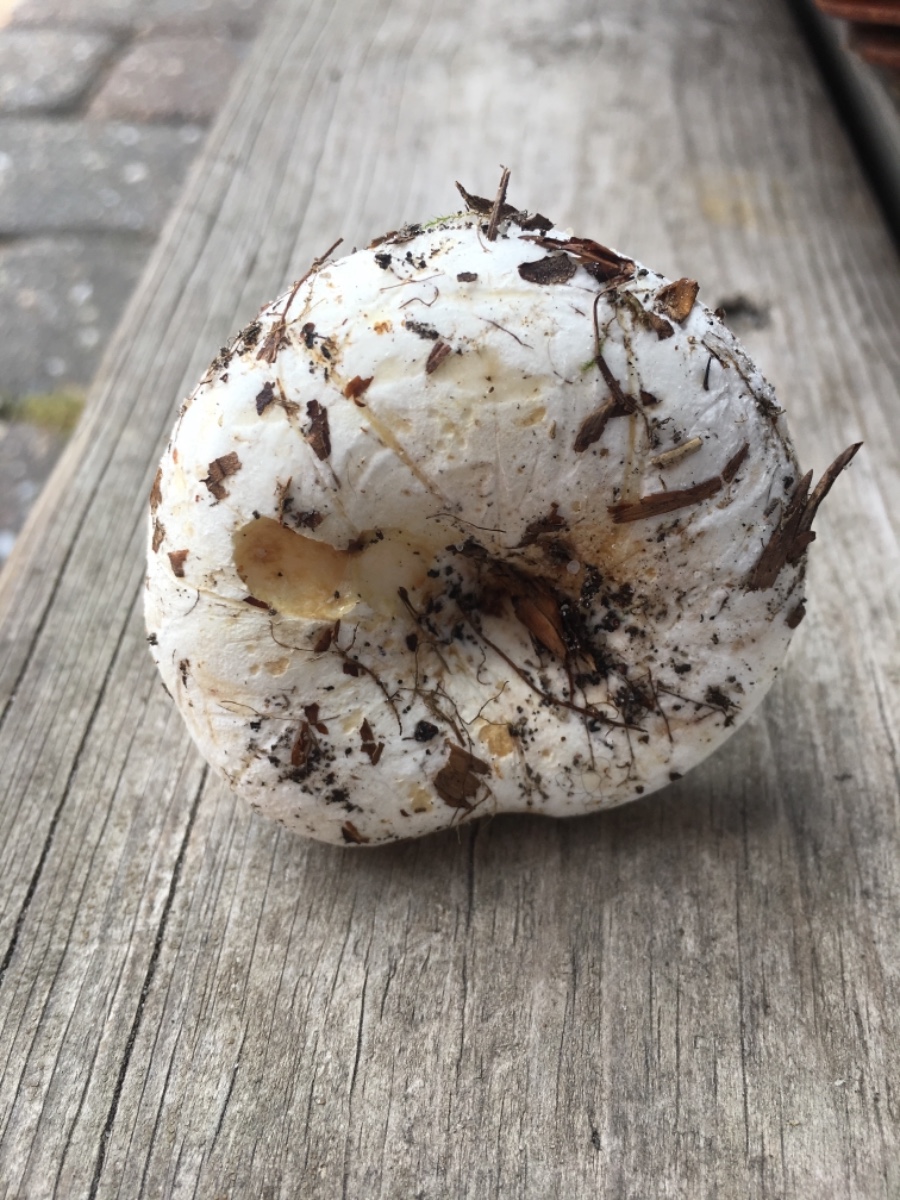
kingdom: Fungi
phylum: Basidiomycota
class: Agaricomycetes
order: Russulales
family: Russulaceae
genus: Lactifluus
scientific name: Lactifluus bertillonii
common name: blødfiltet mælkehat
